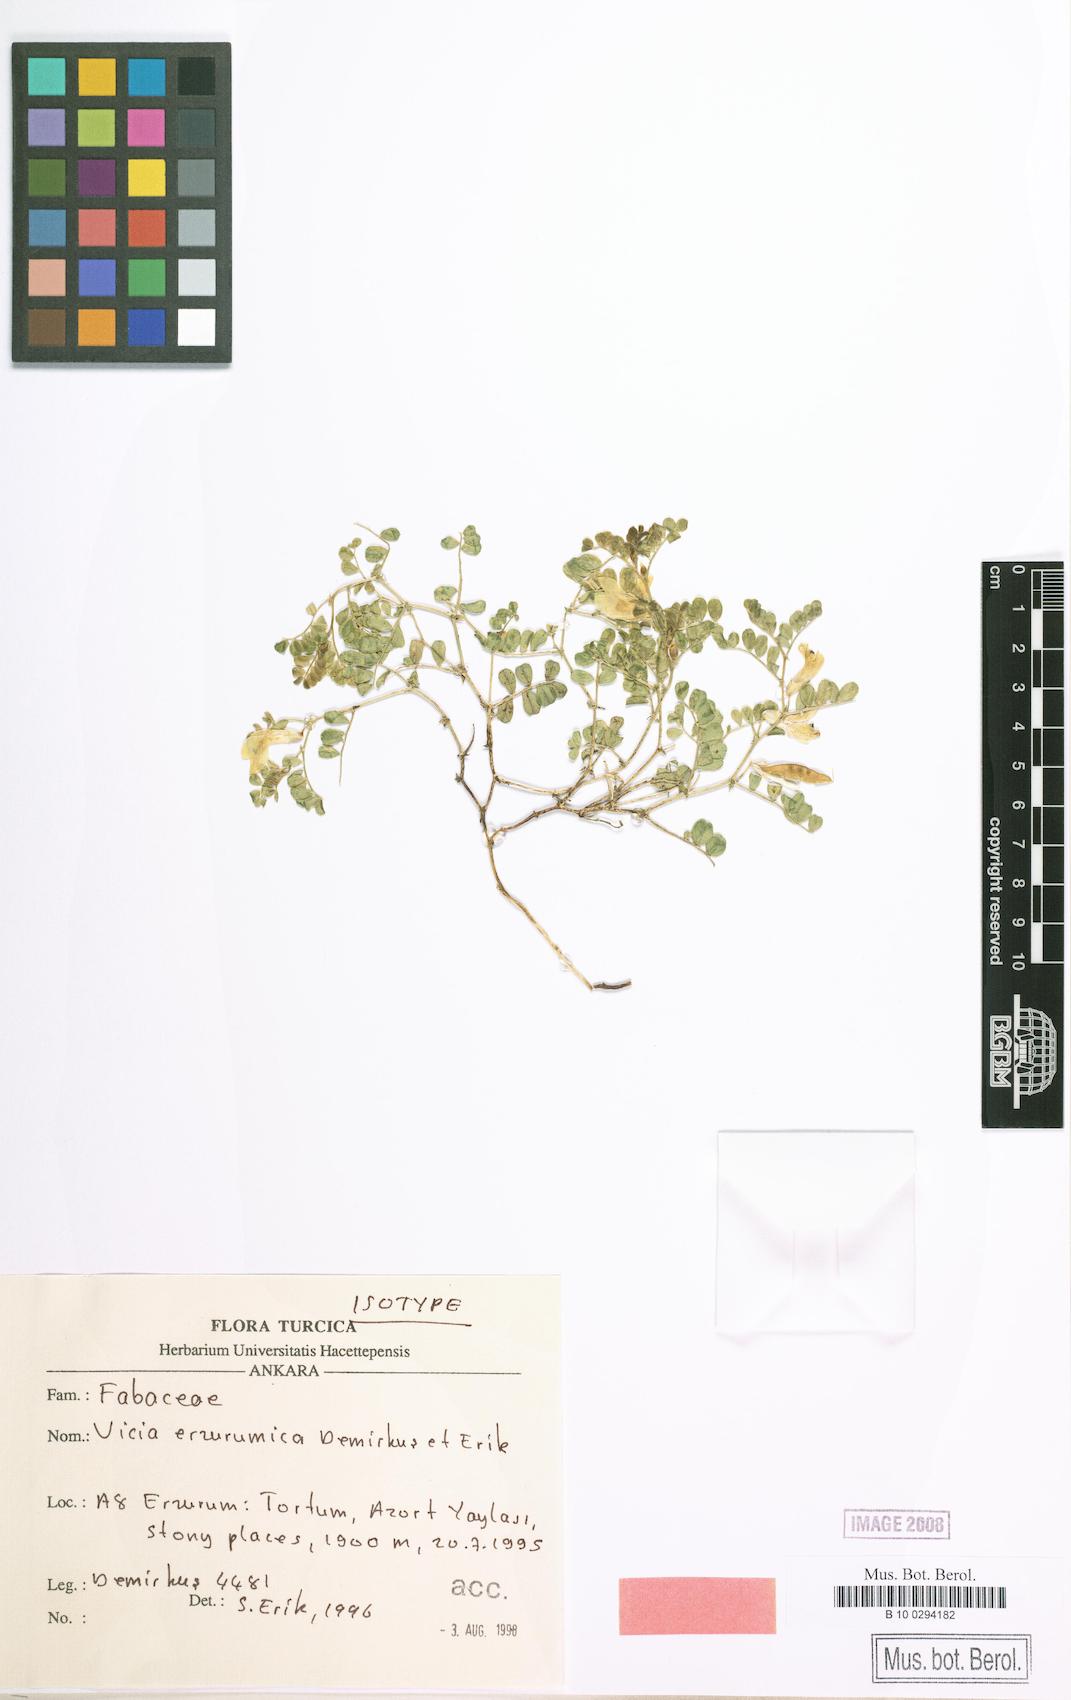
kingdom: Plantae
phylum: Tracheophyta
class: Magnoliopsida
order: Fabales
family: Fabaceae
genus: Vicia
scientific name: Vicia erzurumica
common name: Erzurumian vetch
